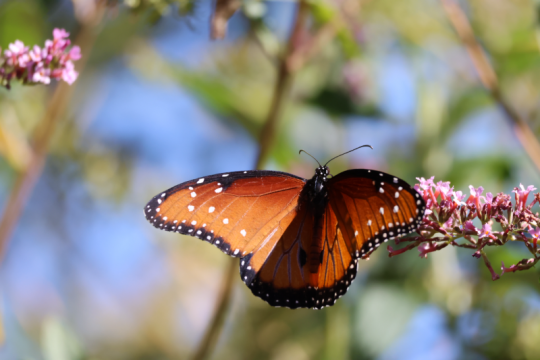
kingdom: Animalia
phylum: Arthropoda
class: Insecta
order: Lepidoptera
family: Nymphalidae
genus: Danaus
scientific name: Danaus gilippus
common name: Queen
